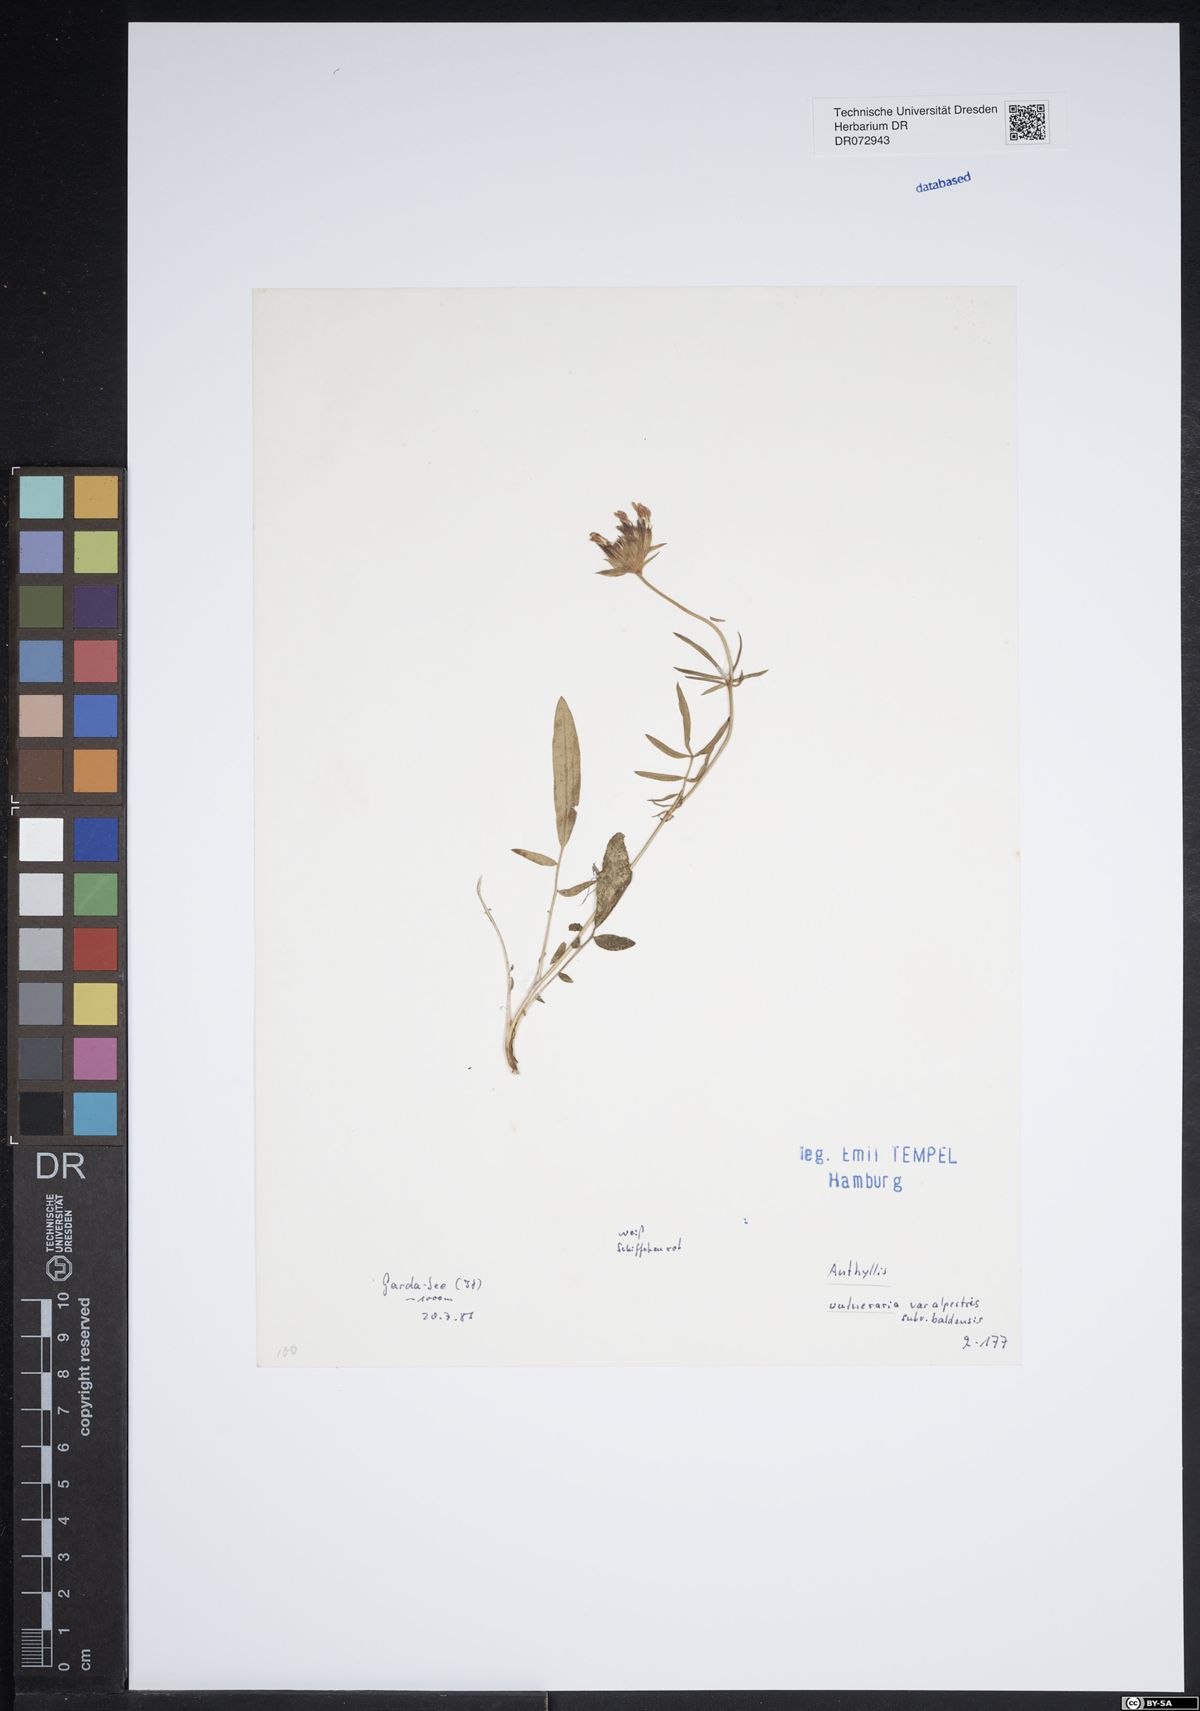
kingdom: Plantae
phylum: Tracheophyta
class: Magnoliopsida
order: Fabales
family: Fabaceae
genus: Anthyllis
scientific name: Anthyllis vulneraria
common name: Kidney vetch
